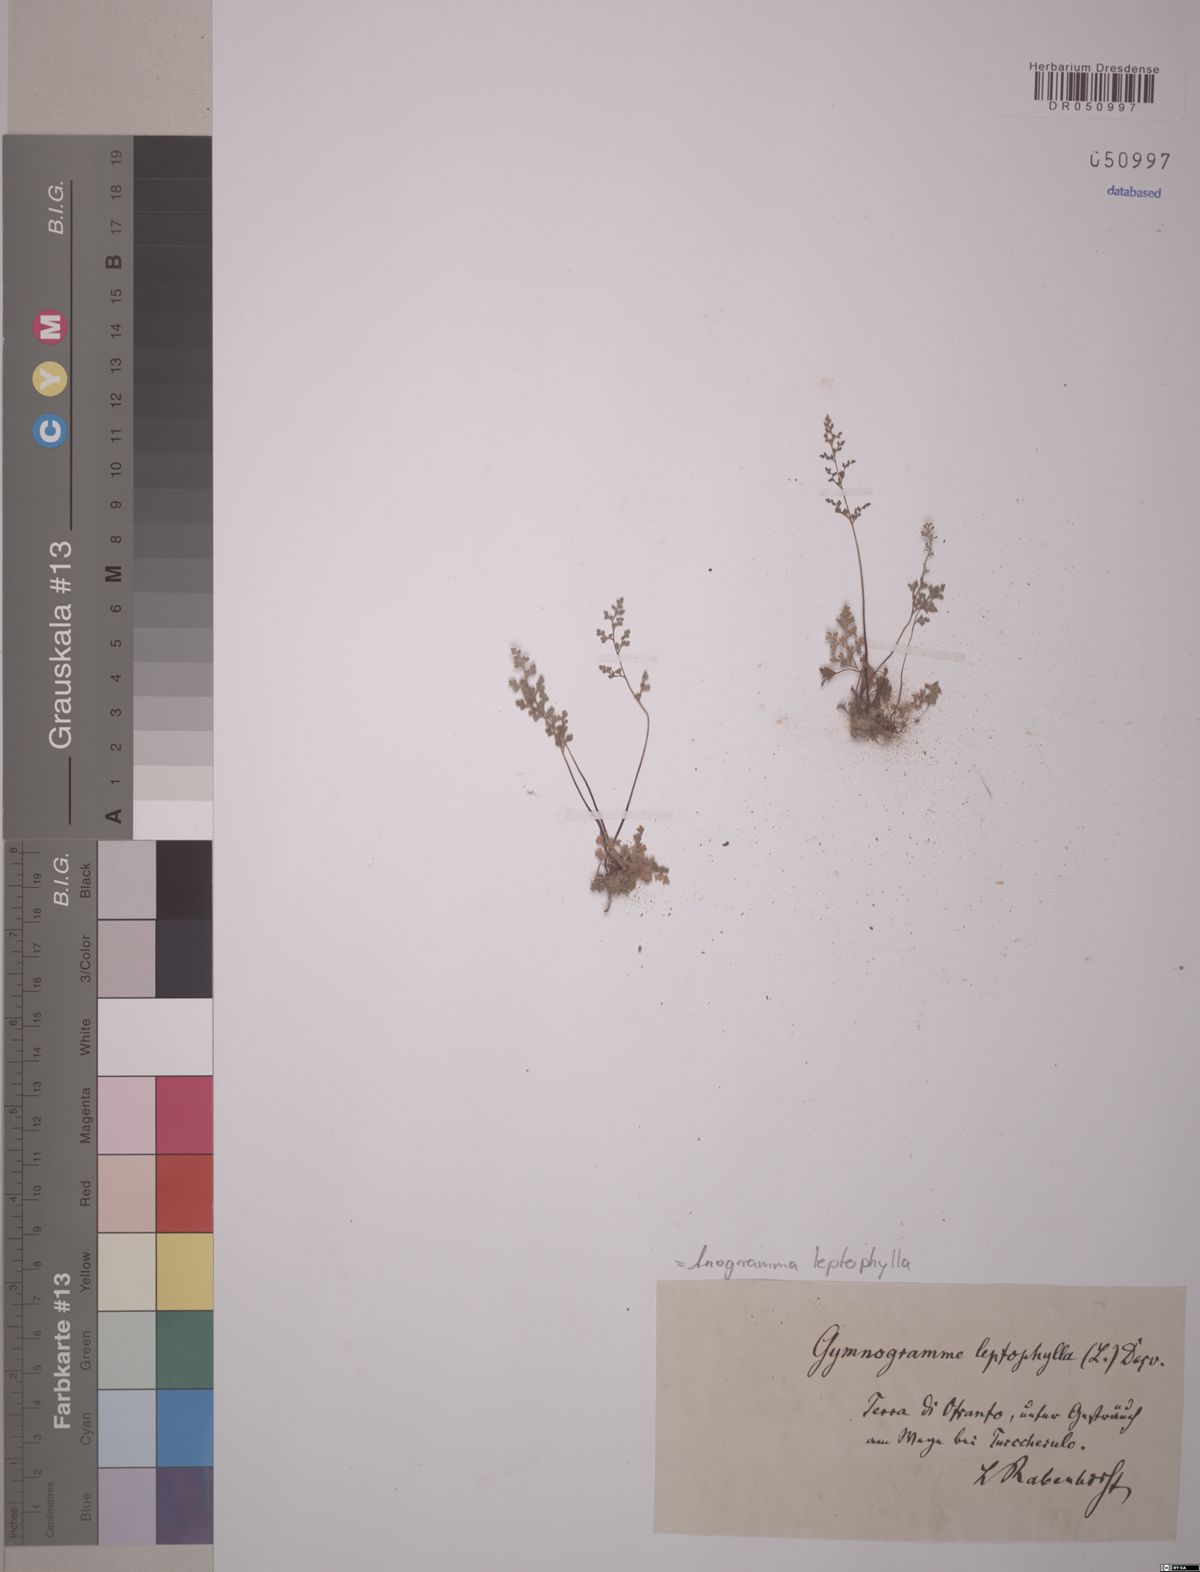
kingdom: Plantae
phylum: Tracheophyta
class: Polypodiopsida
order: Polypodiales
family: Pteridaceae
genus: Anogramma
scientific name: Anogramma leptophylla
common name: Jersey fern
